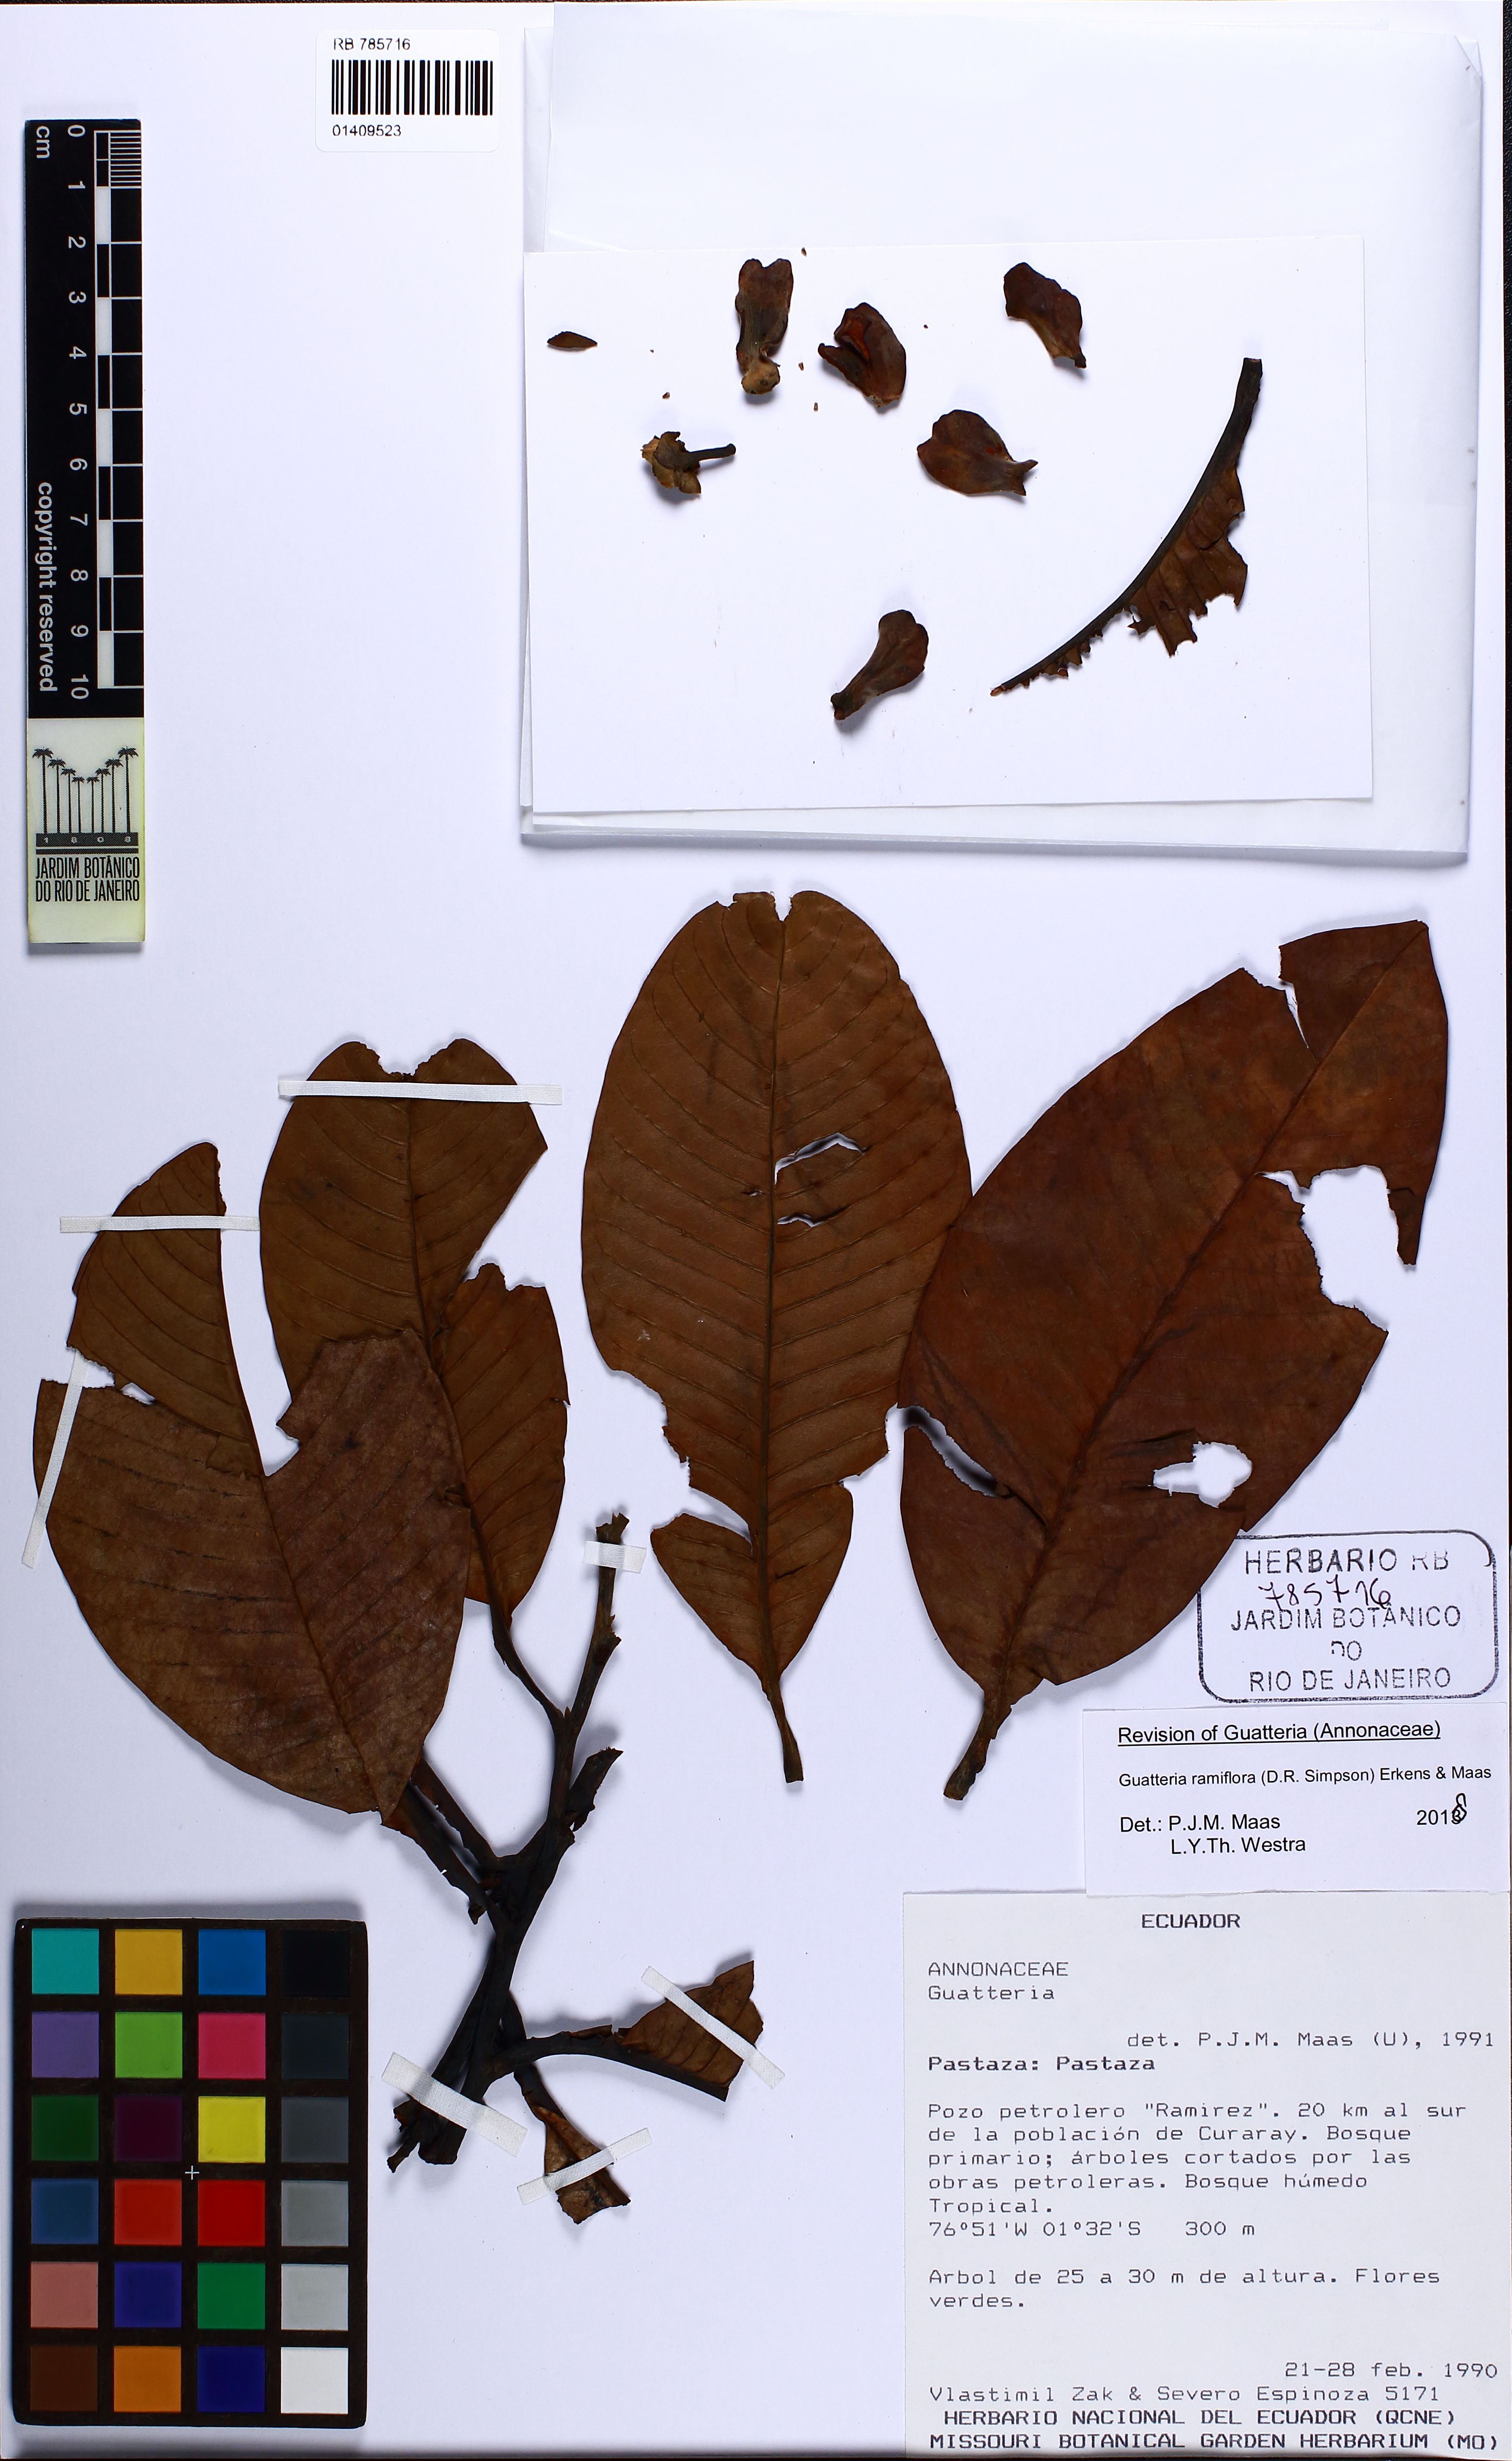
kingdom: Plantae
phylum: Tracheophyta
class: Magnoliopsida
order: Magnoliales
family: Annonaceae
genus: Guatteria
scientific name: Guatteria ramiflora
